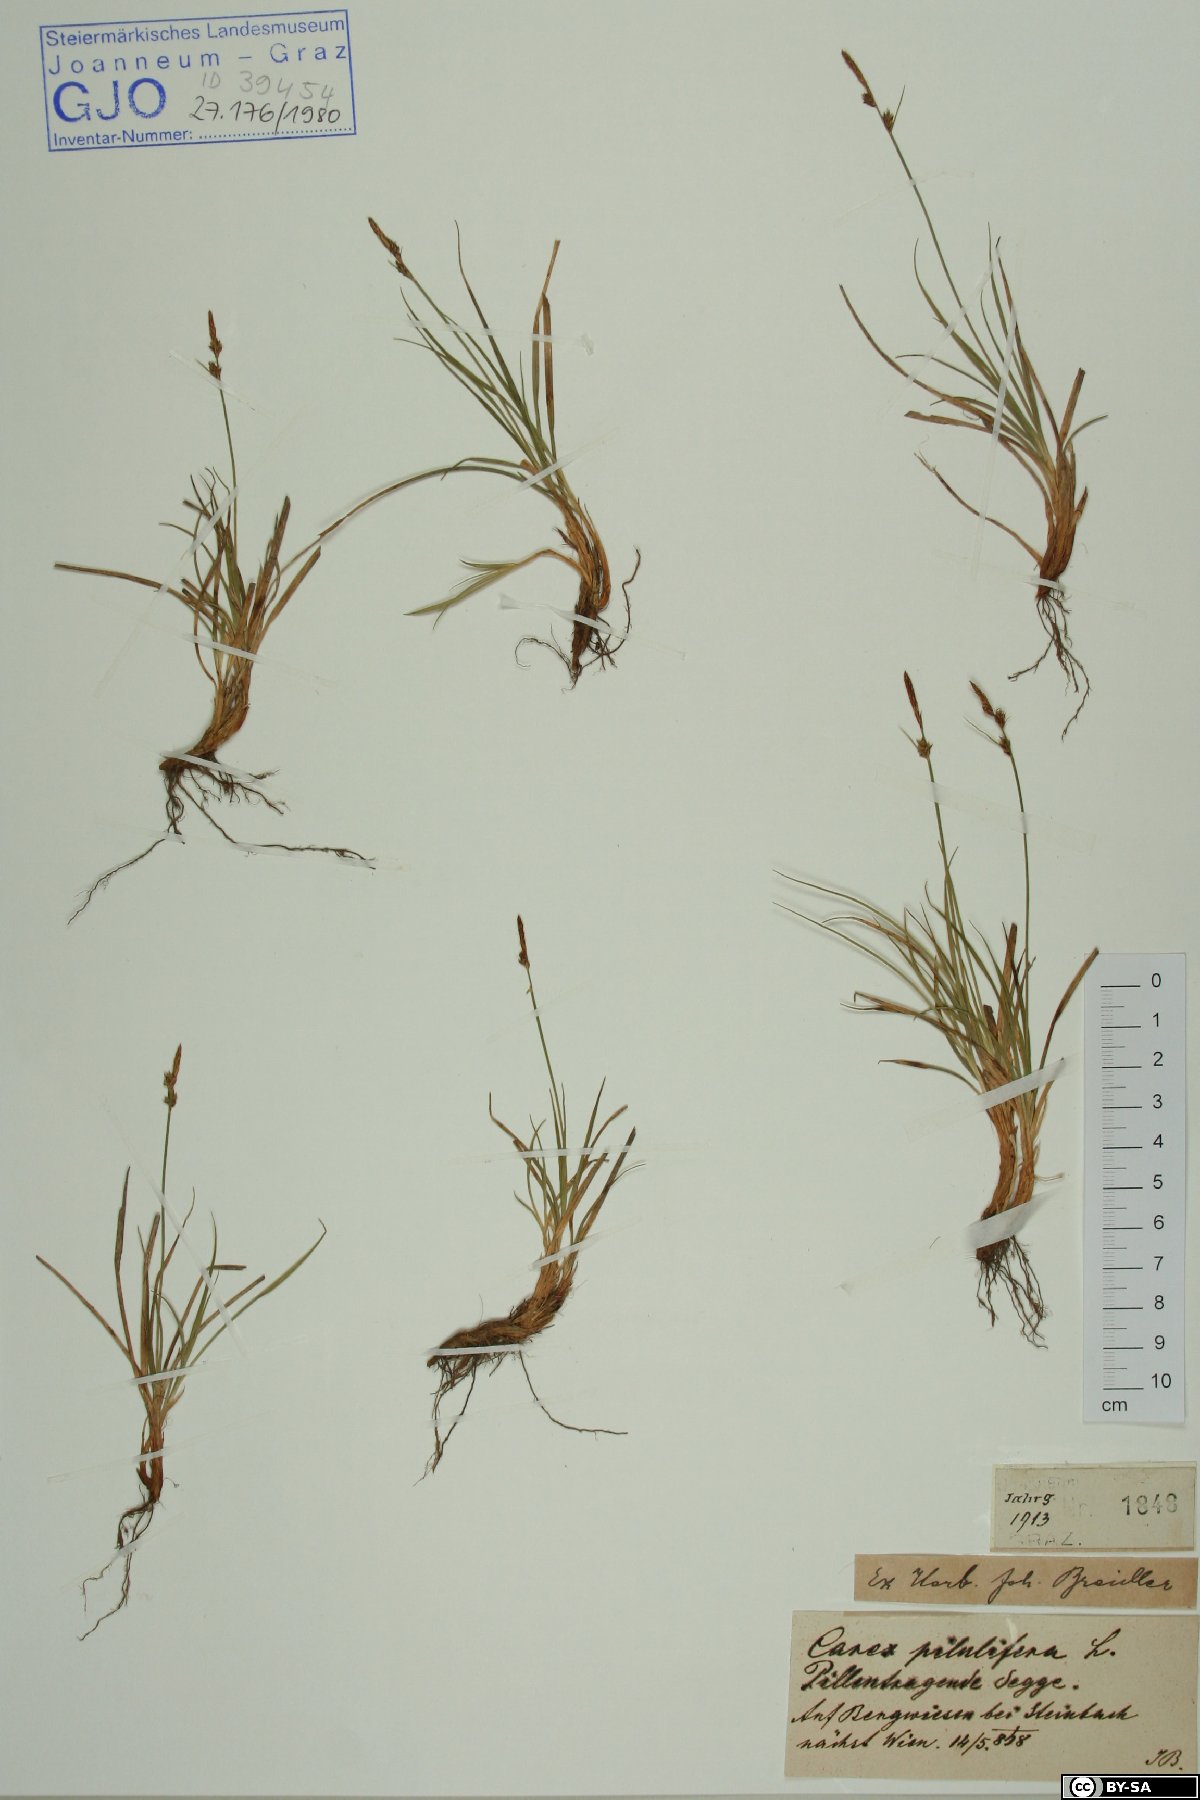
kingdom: Plantae
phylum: Tracheophyta
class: Liliopsida
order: Poales
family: Cyperaceae
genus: Carex
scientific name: Carex pilulifera
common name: Pill sedge
